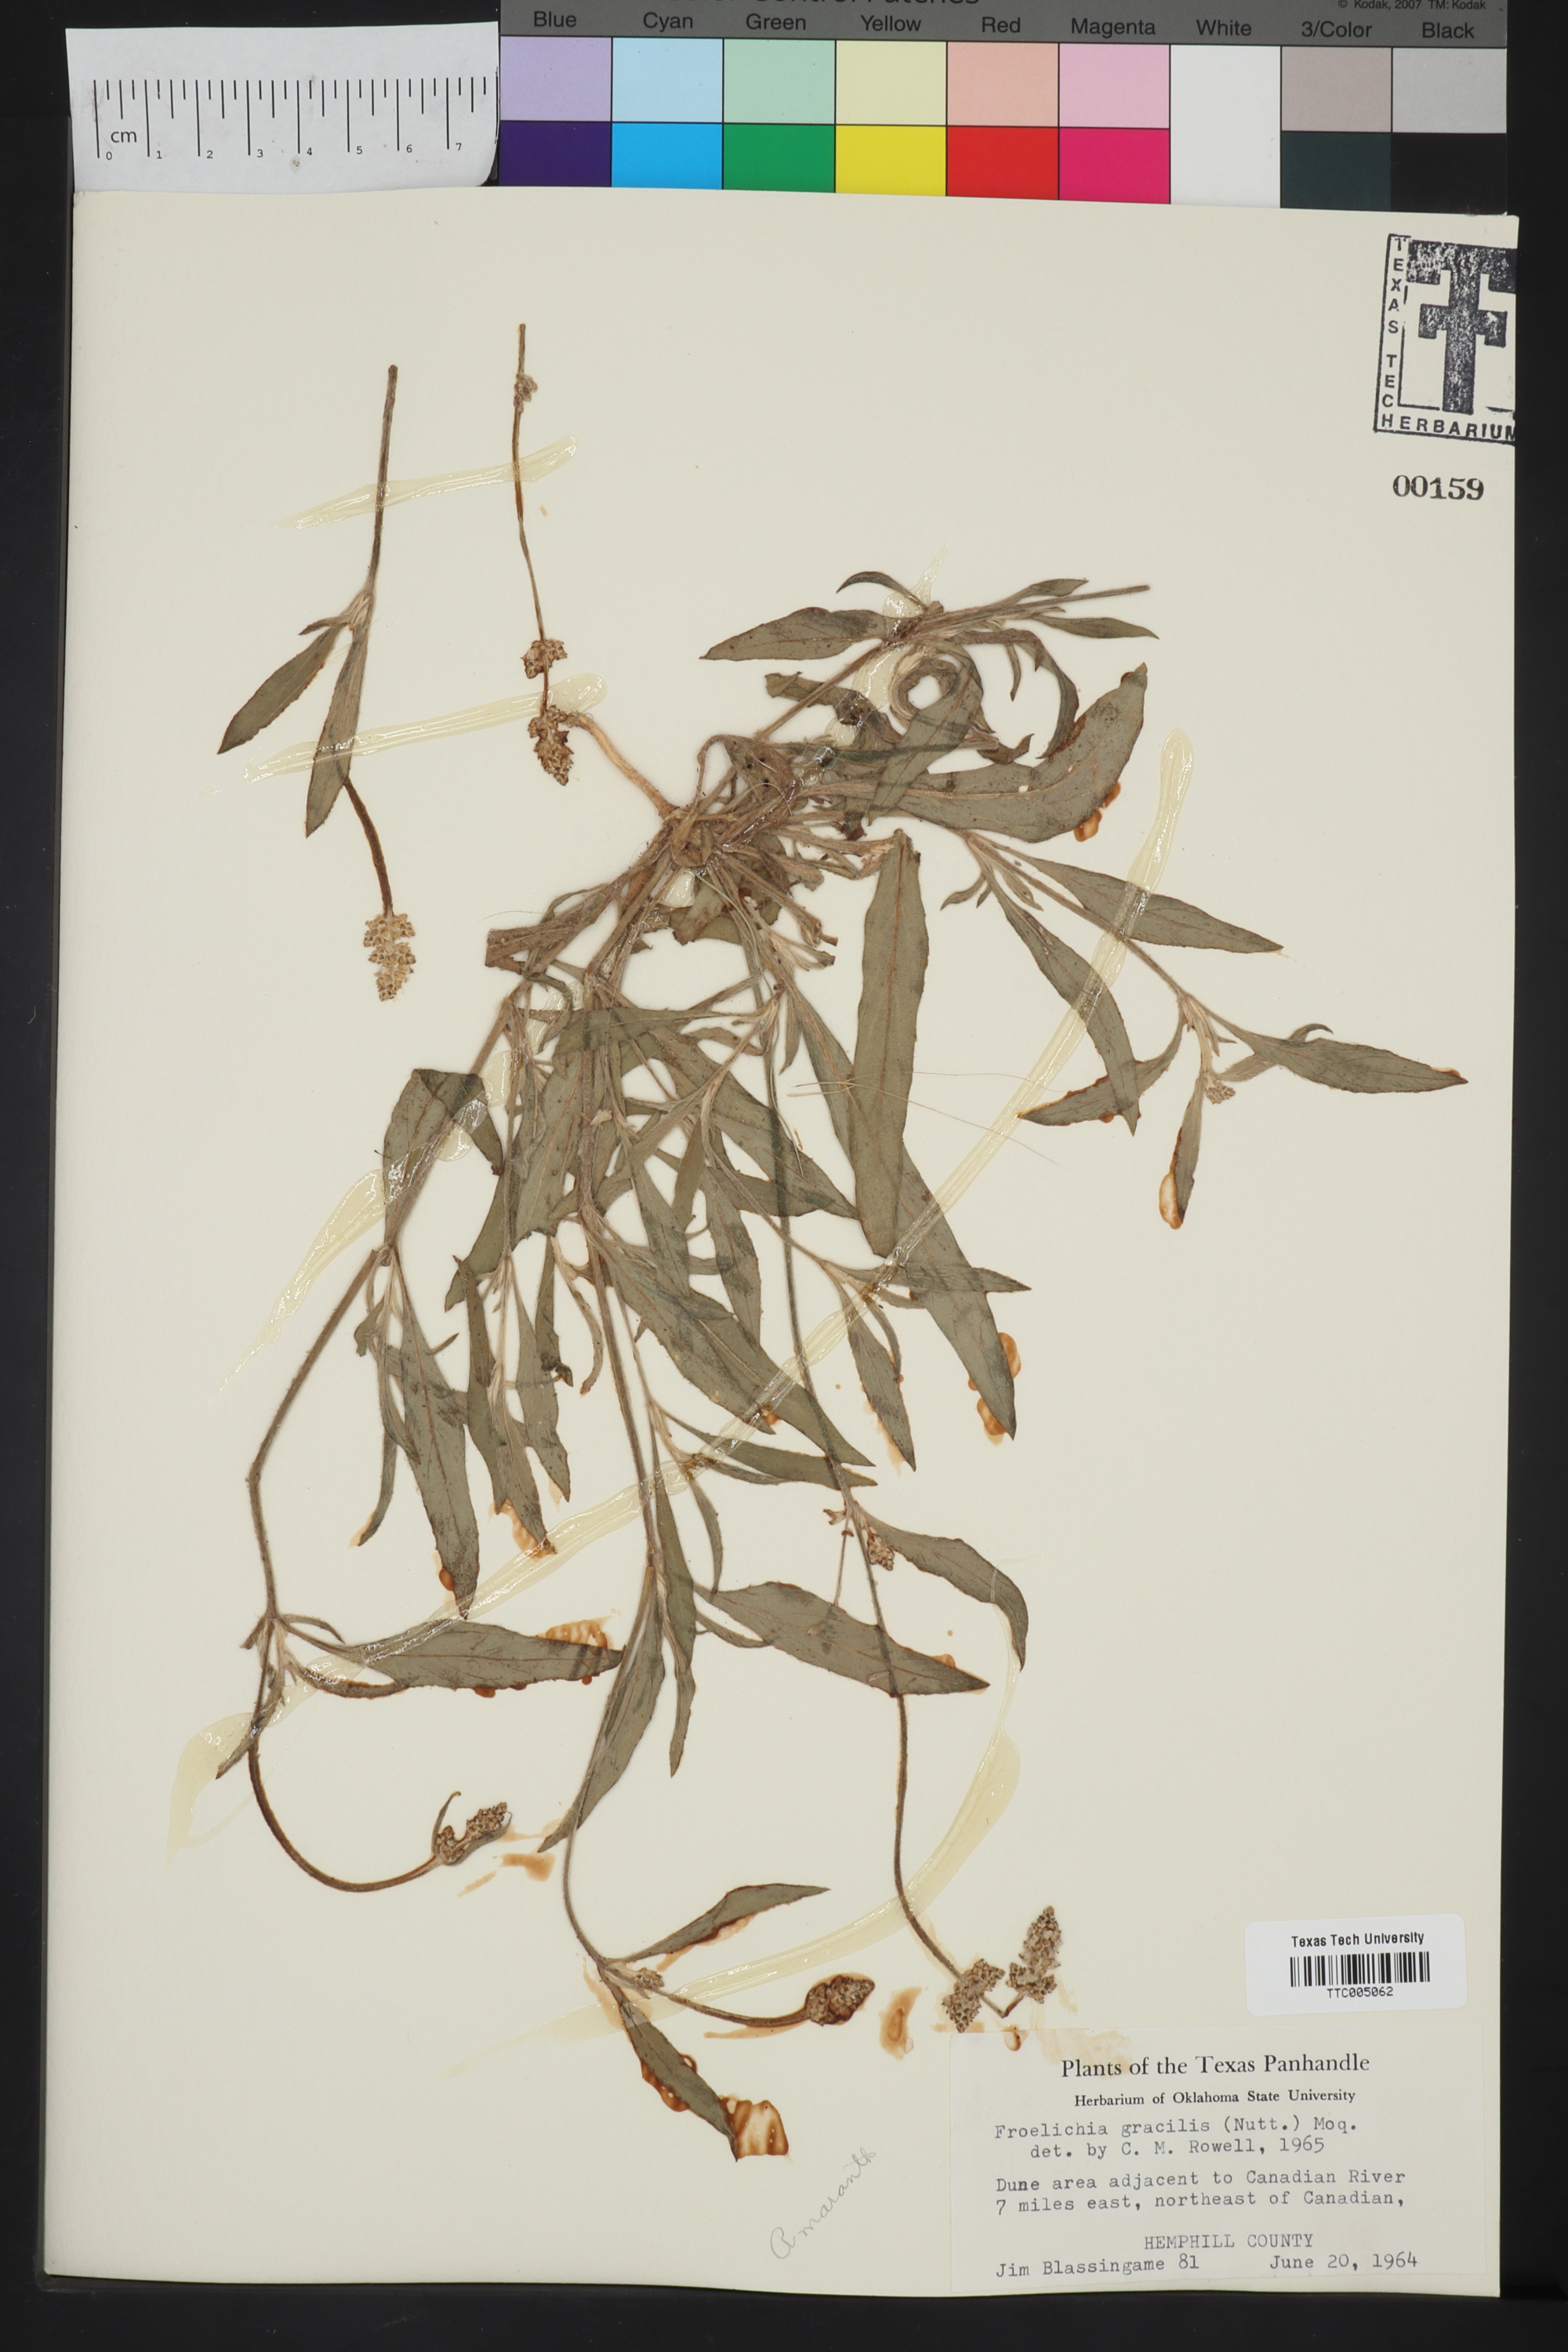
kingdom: Plantae
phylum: Tracheophyta
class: Magnoliopsida
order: Caryophyllales
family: Amaranthaceae
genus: Froelichia
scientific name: Froelichia gracilis
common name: Slender cottonweed
